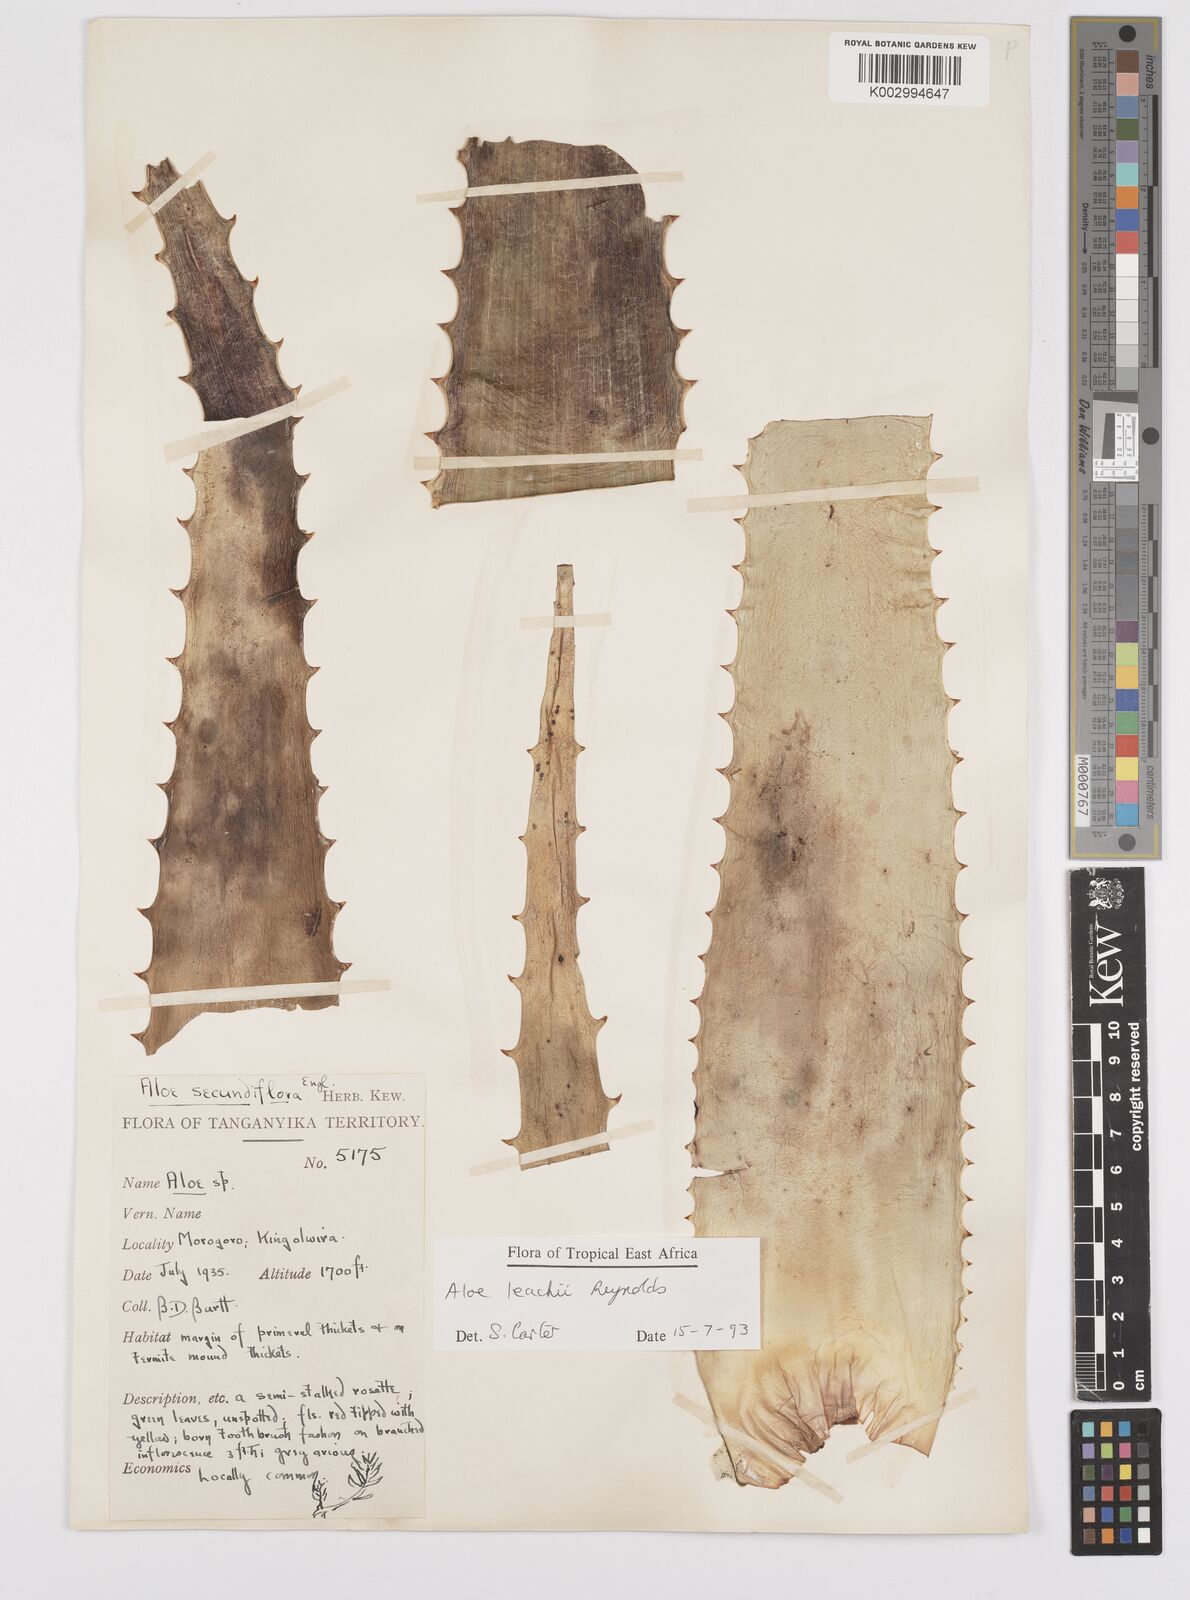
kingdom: Plantae
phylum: Tracheophyta
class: Liliopsida
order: Asparagales
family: Asphodelaceae
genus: Aloe
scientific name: Aloe leachii
